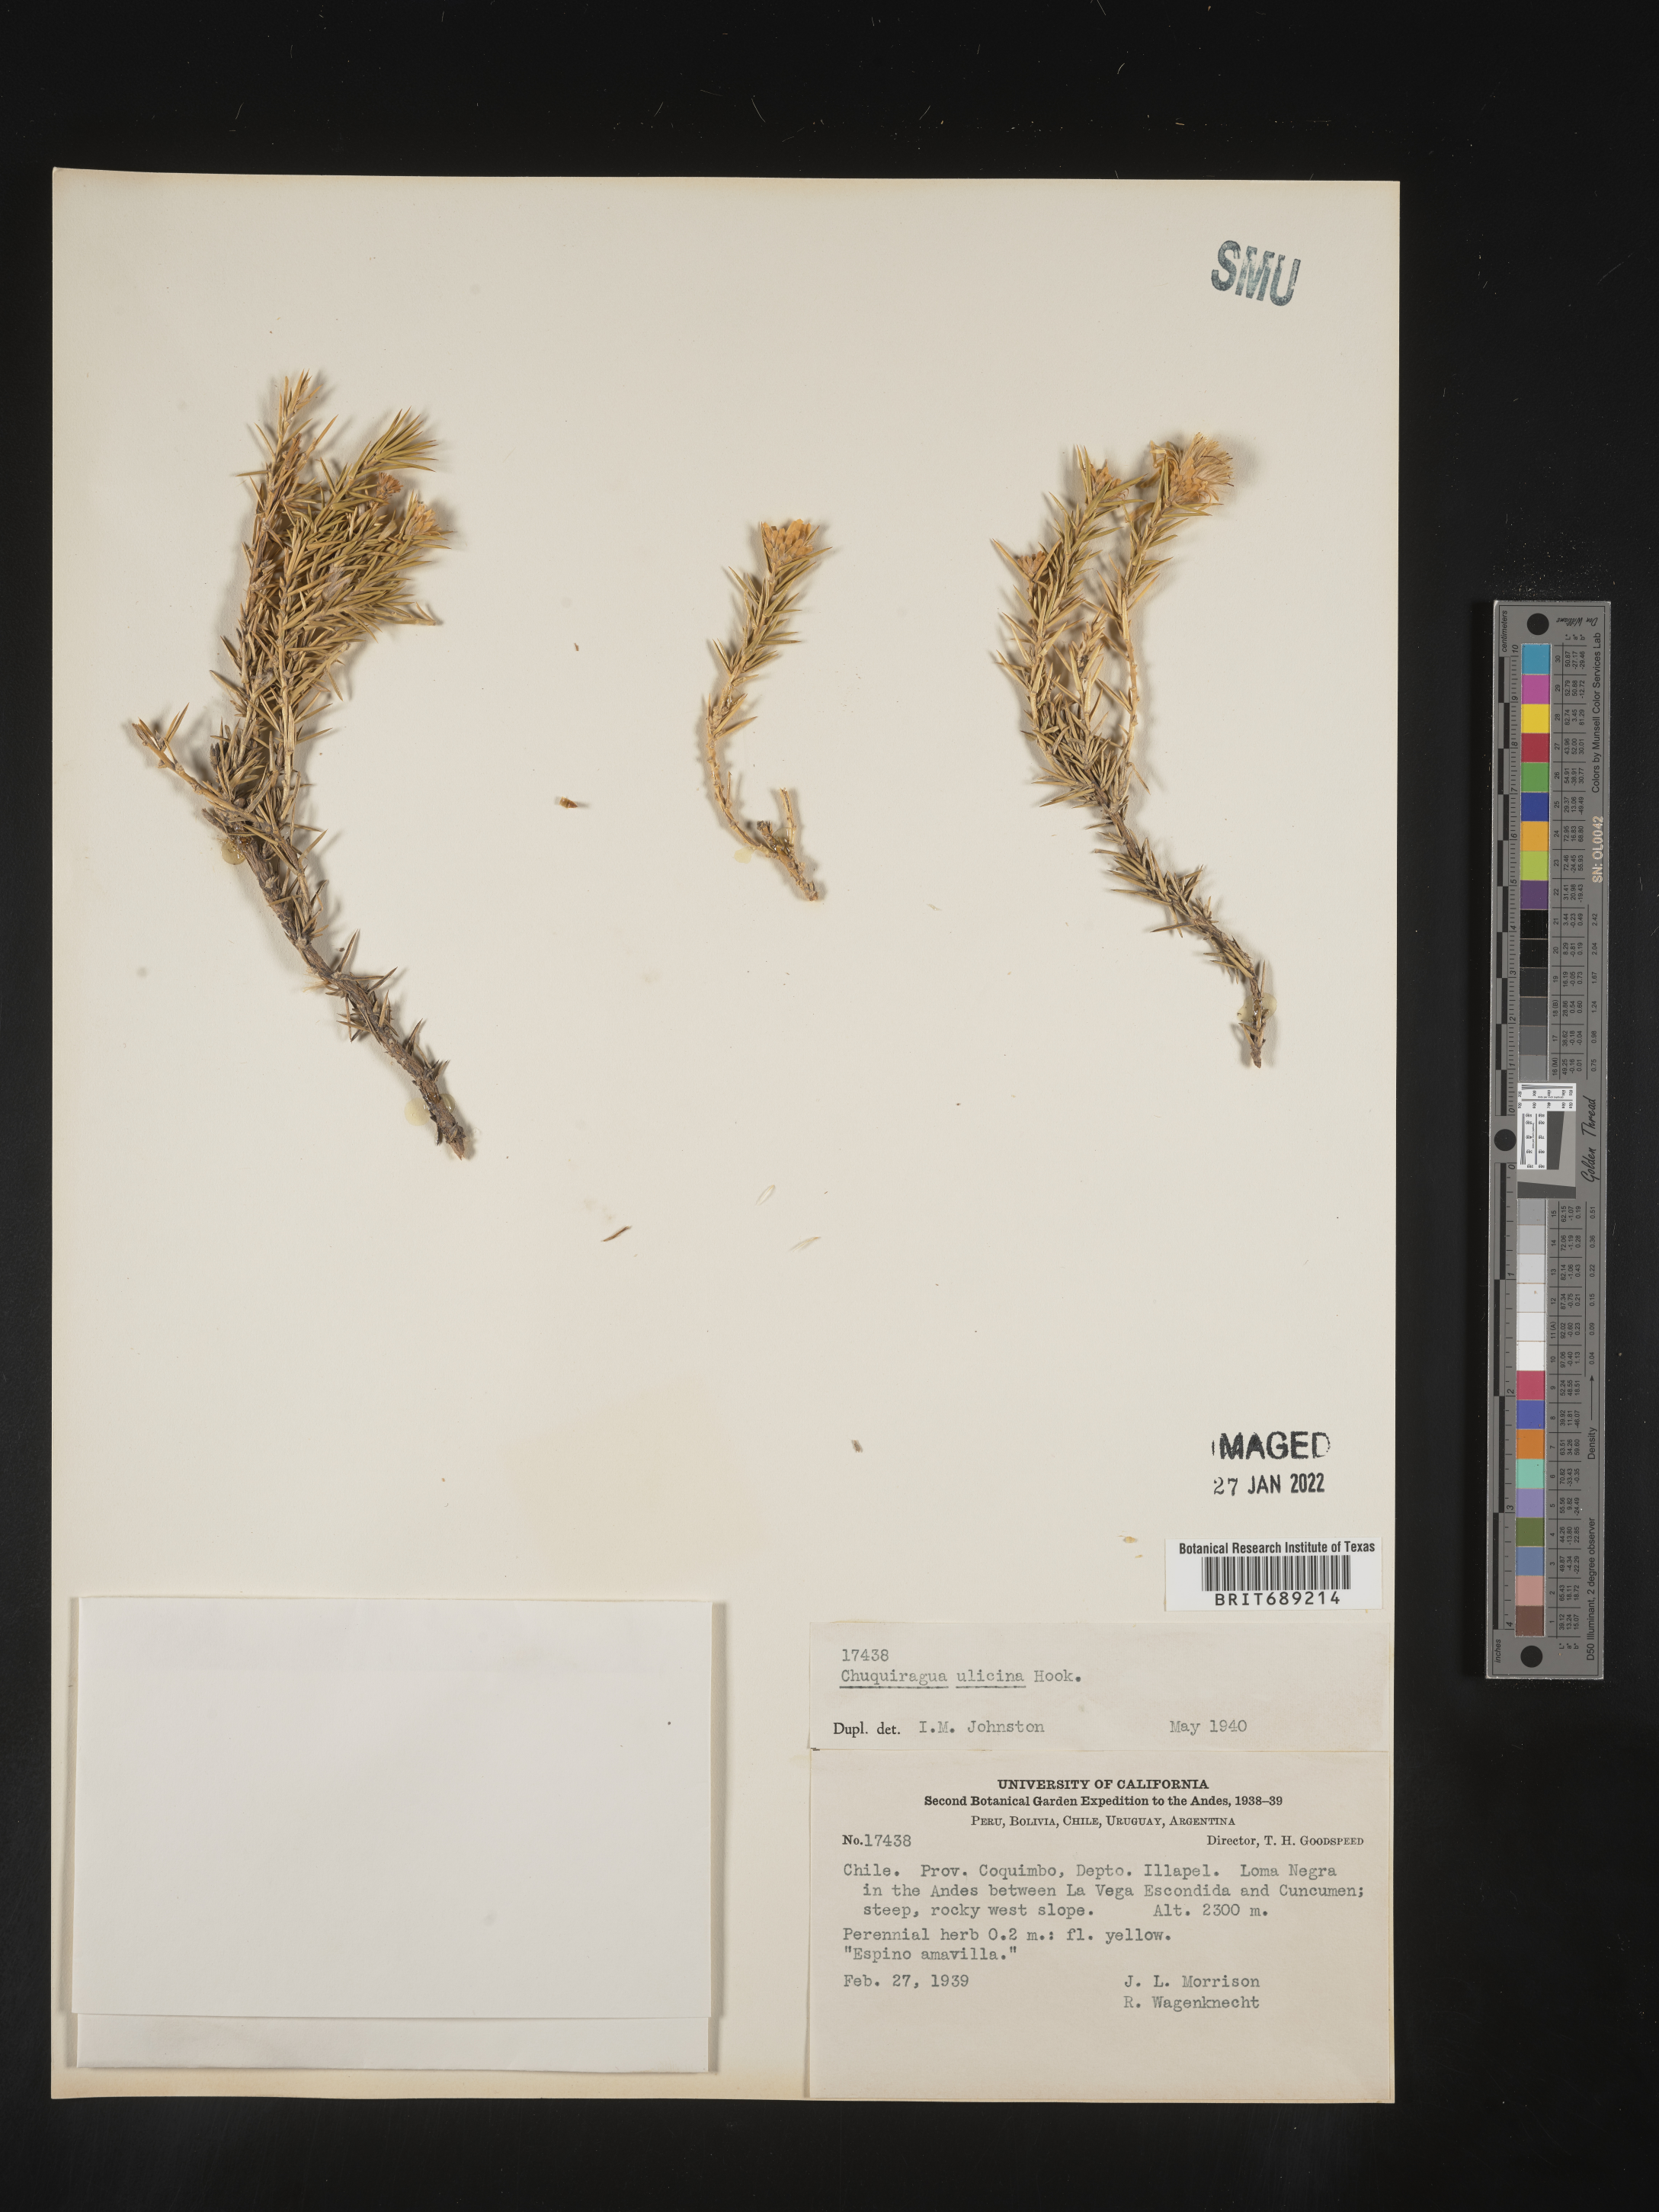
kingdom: Plantae
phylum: Tracheophyta
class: Magnoliopsida
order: Asterales
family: Asteraceae
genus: Chuquiraga
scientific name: Chuquiraga
